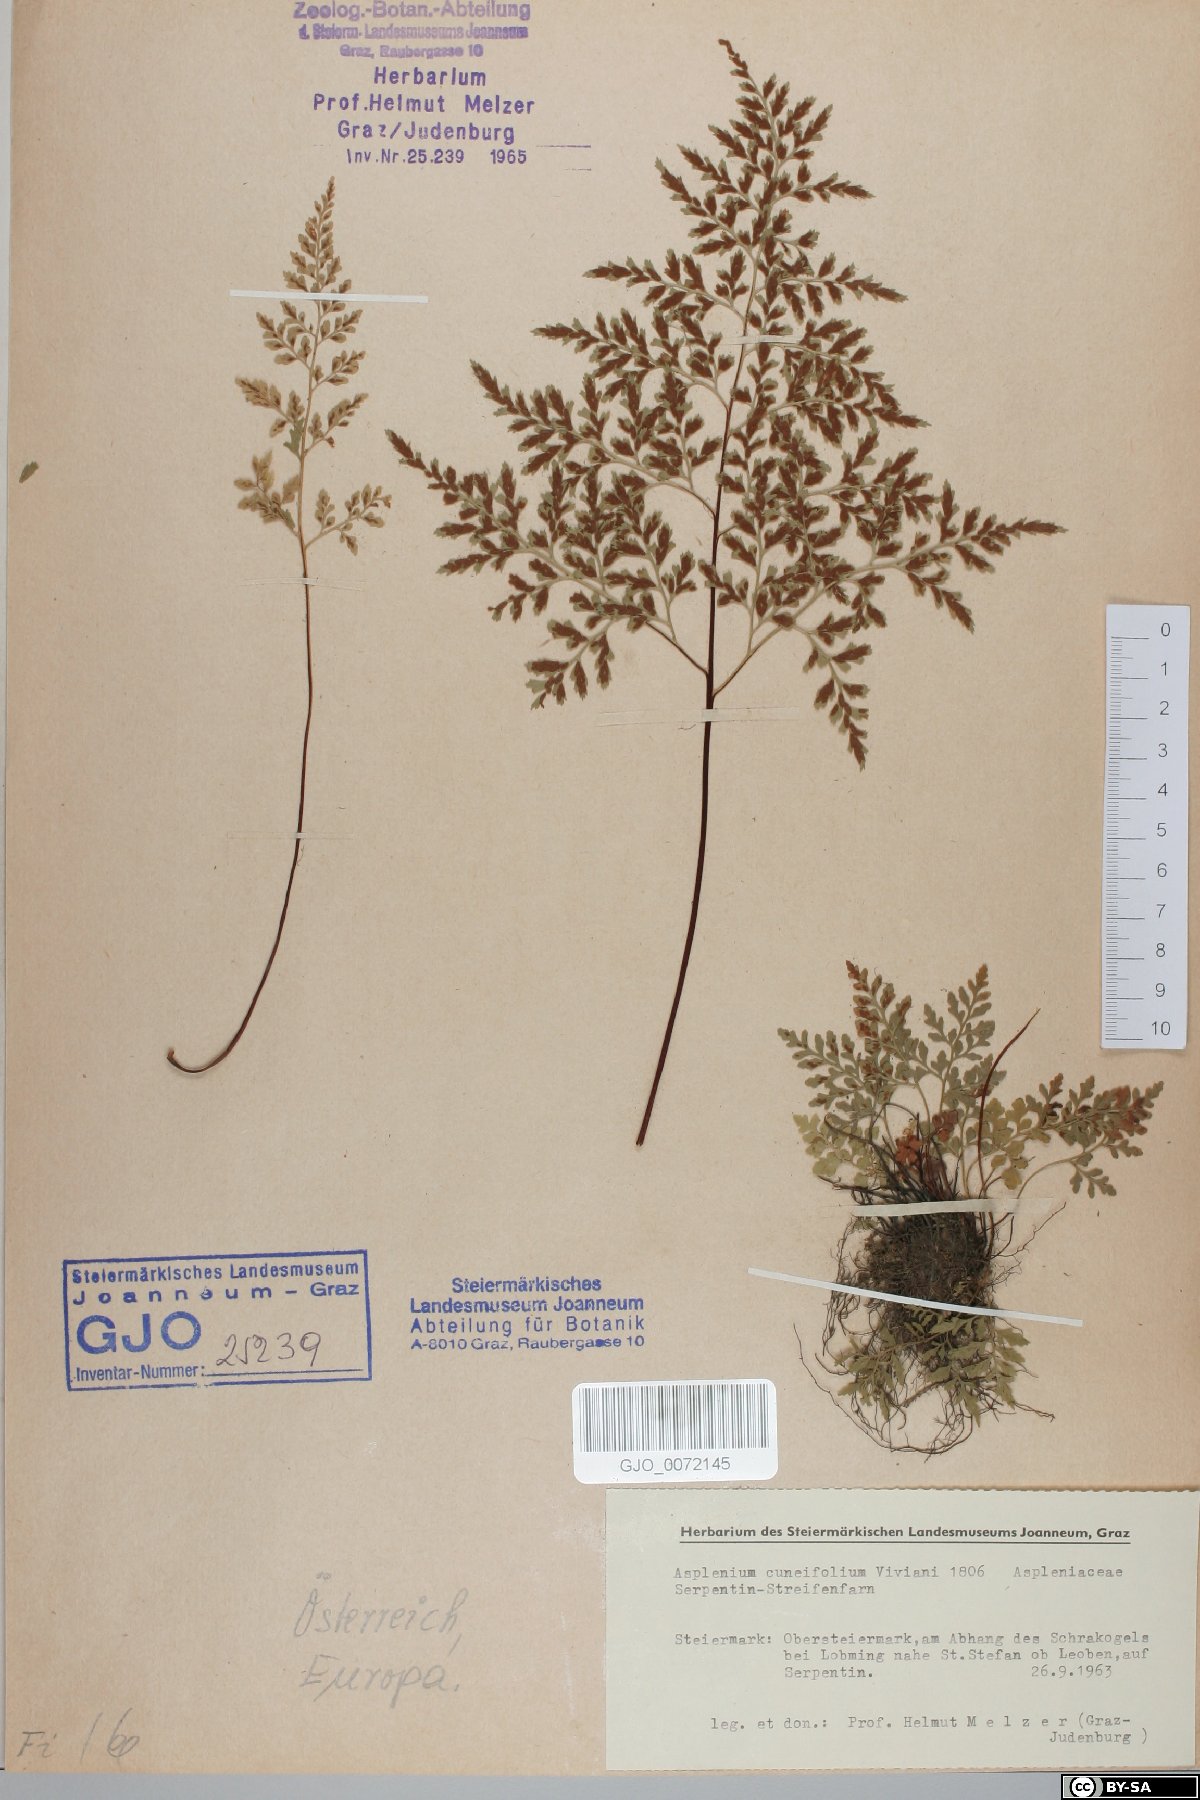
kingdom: Plantae
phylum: Tracheophyta
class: Polypodiopsida
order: Polypodiales
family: Aspleniaceae
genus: Asplenium
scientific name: Asplenium cuneifolium
